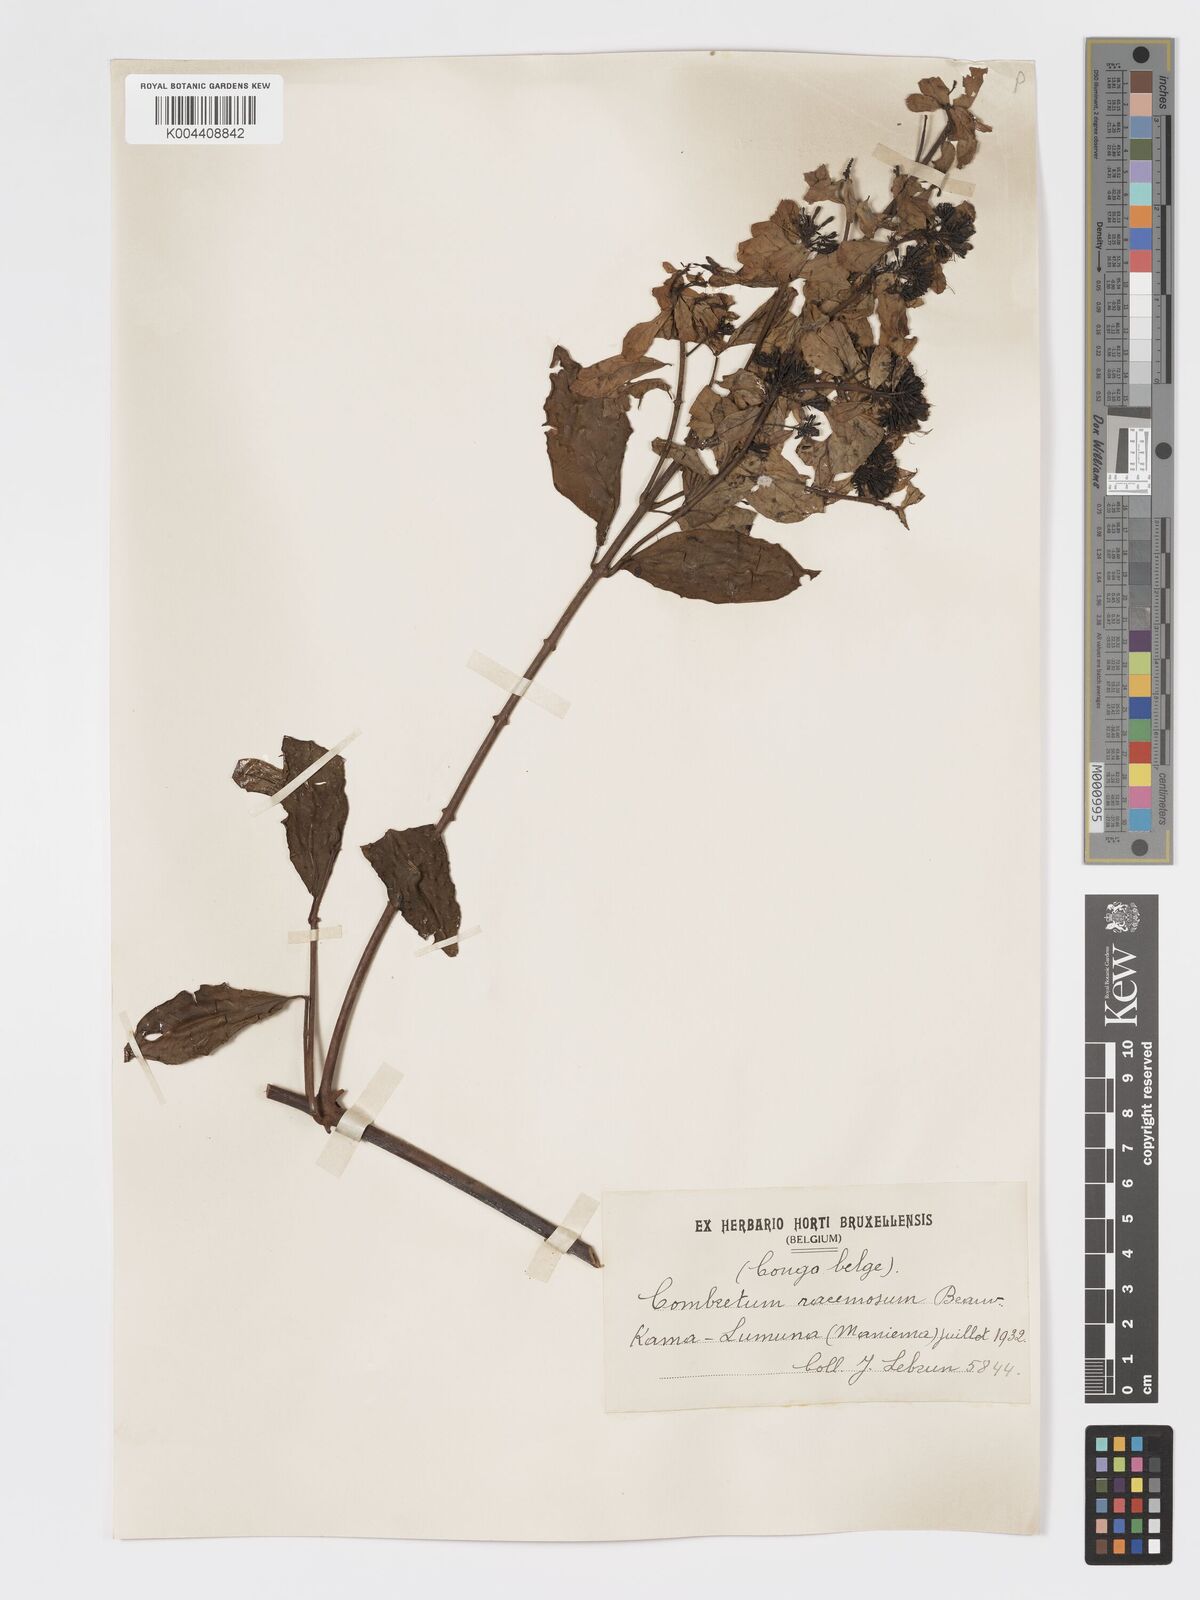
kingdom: Plantae
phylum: Tracheophyta
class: Magnoliopsida
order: Myrtales
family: Combretaceae
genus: Combretum
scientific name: Combretum racemosum
